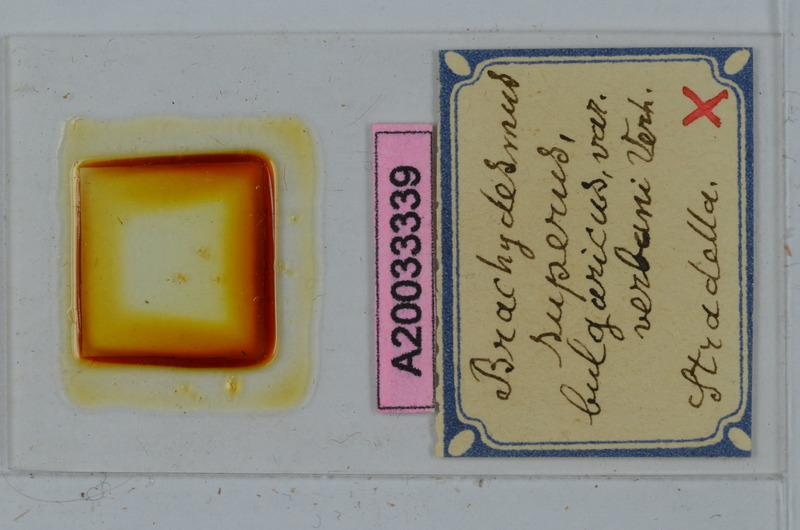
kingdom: Animalia
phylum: Arthropoda
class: Diplopoda
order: Polydesmida
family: Polydesmidae
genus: Brachydesmus
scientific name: Brachydesmus superus
